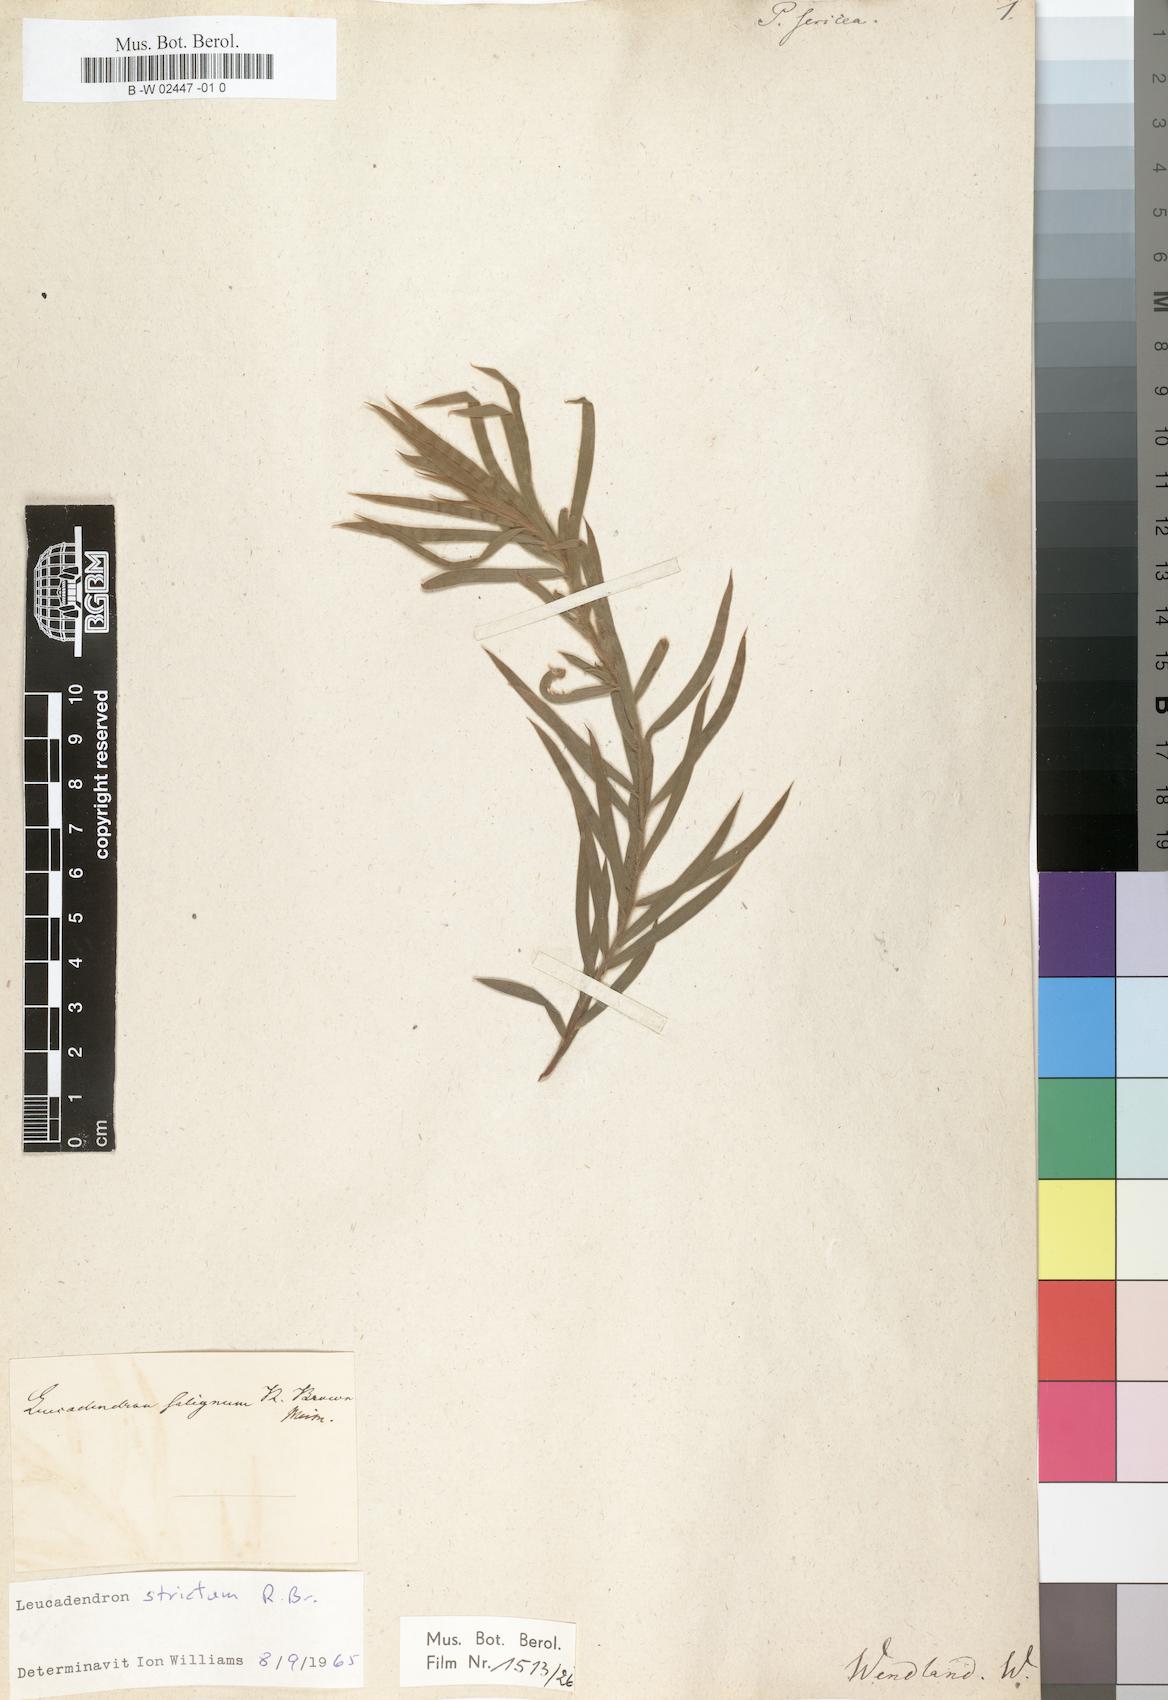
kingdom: Plantae
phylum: Tracheophyta
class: Magnoliopsida
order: Proteales
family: Proteaceae
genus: Leucadendron
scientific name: Leucadendron sericeum
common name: Wabooms conebush
